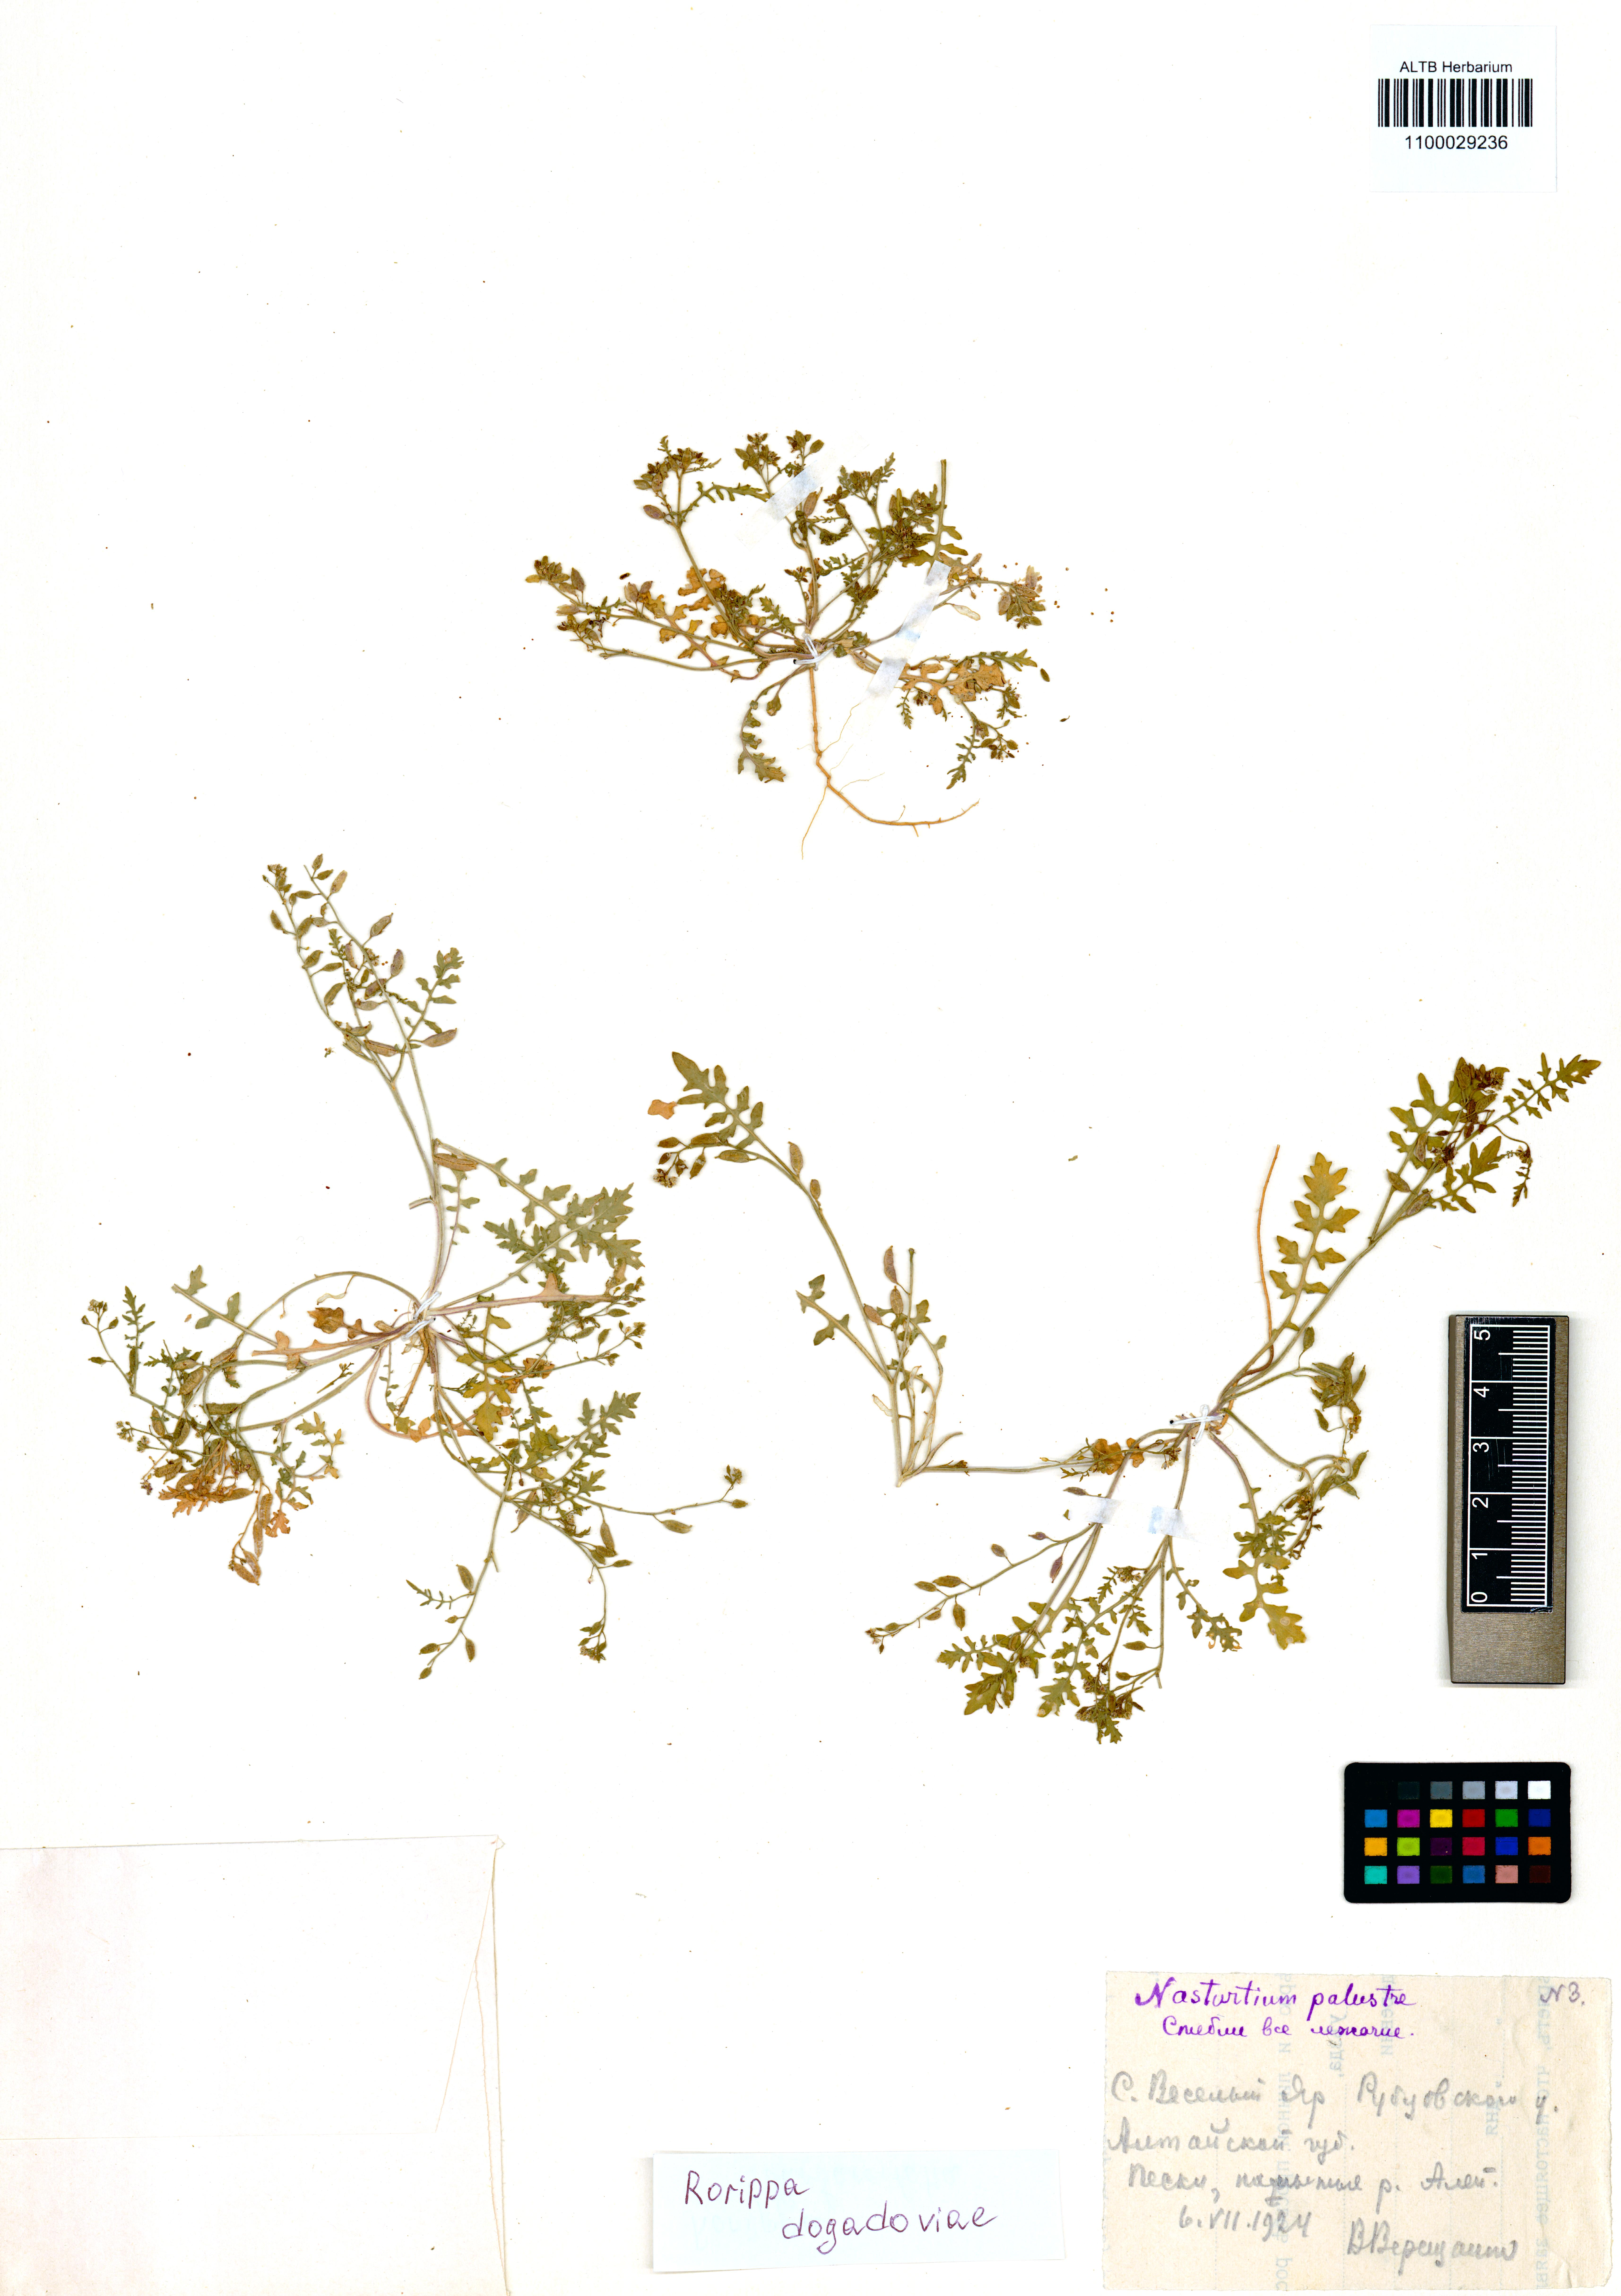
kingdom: Plantae
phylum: Tracheophyta
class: Magnoliopsida
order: Brassicales
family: Brassicaceae
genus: Rorippa
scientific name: Rorippa islandica
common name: Marsh cress
